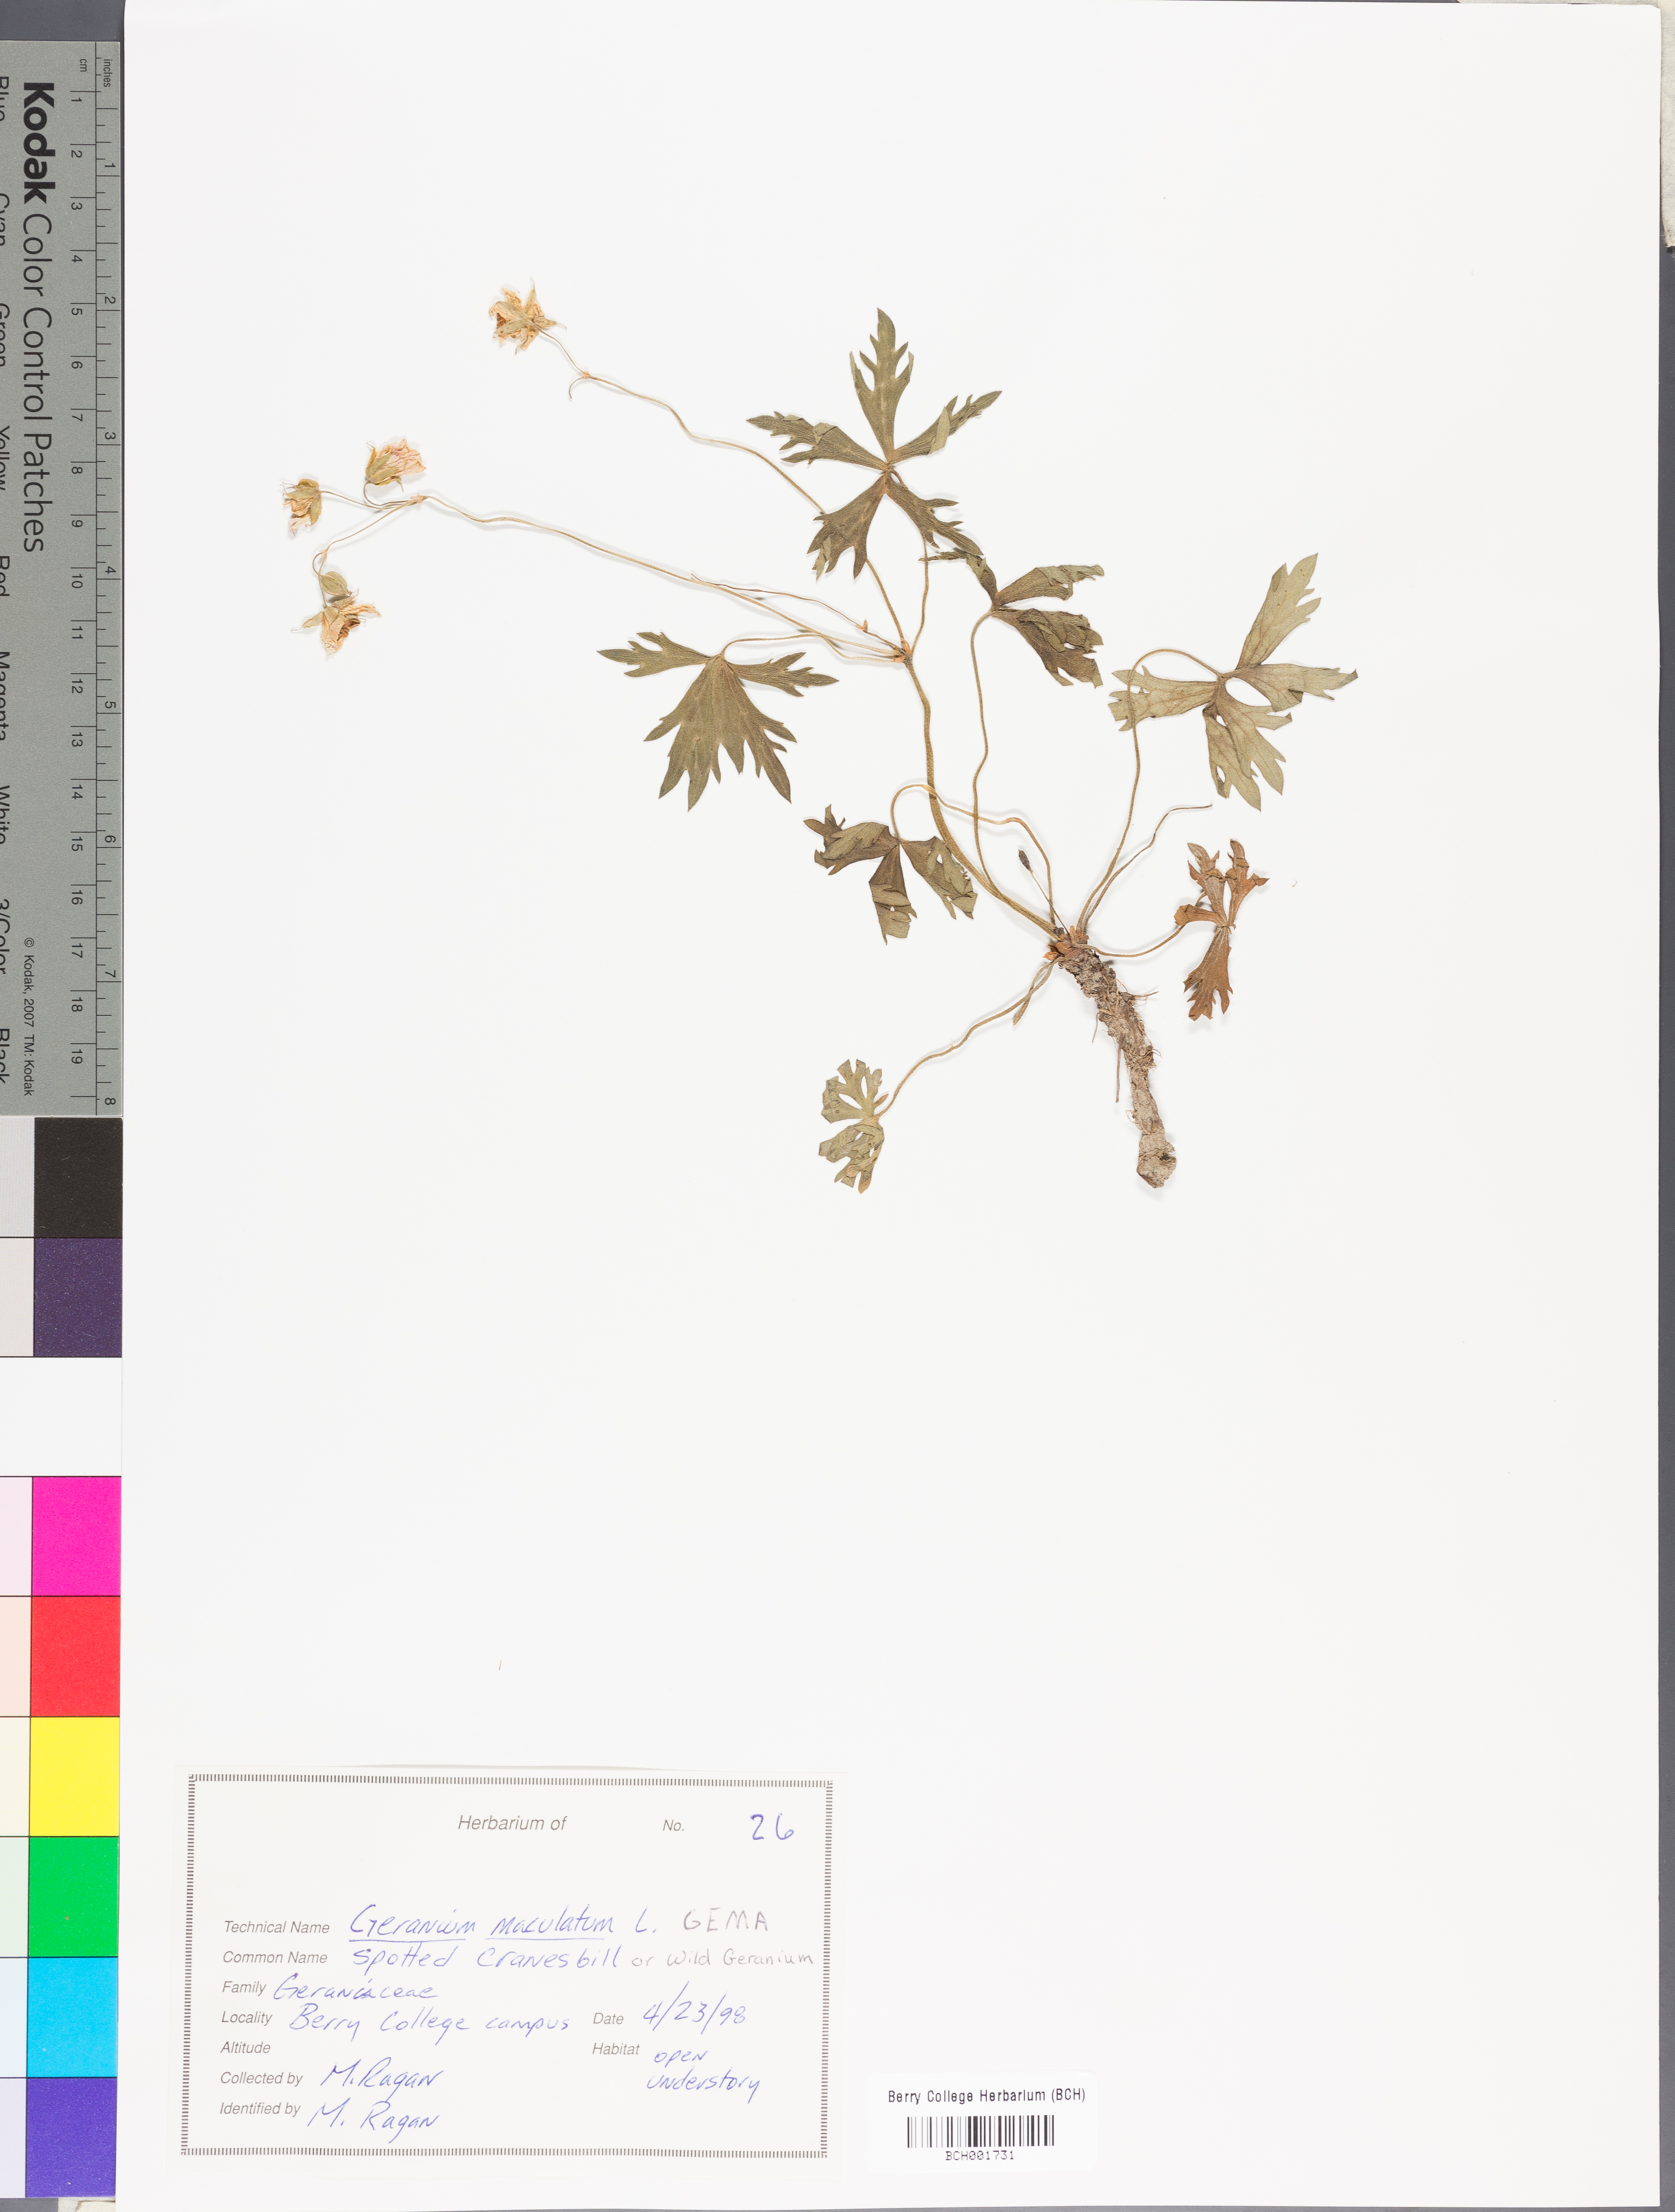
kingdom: Plantae
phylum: Tracheophyta
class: Magnoliopsida
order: Geraniales
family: Geraniaceae
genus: Geranium
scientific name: Geranium maculatum
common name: Spotted geranium
